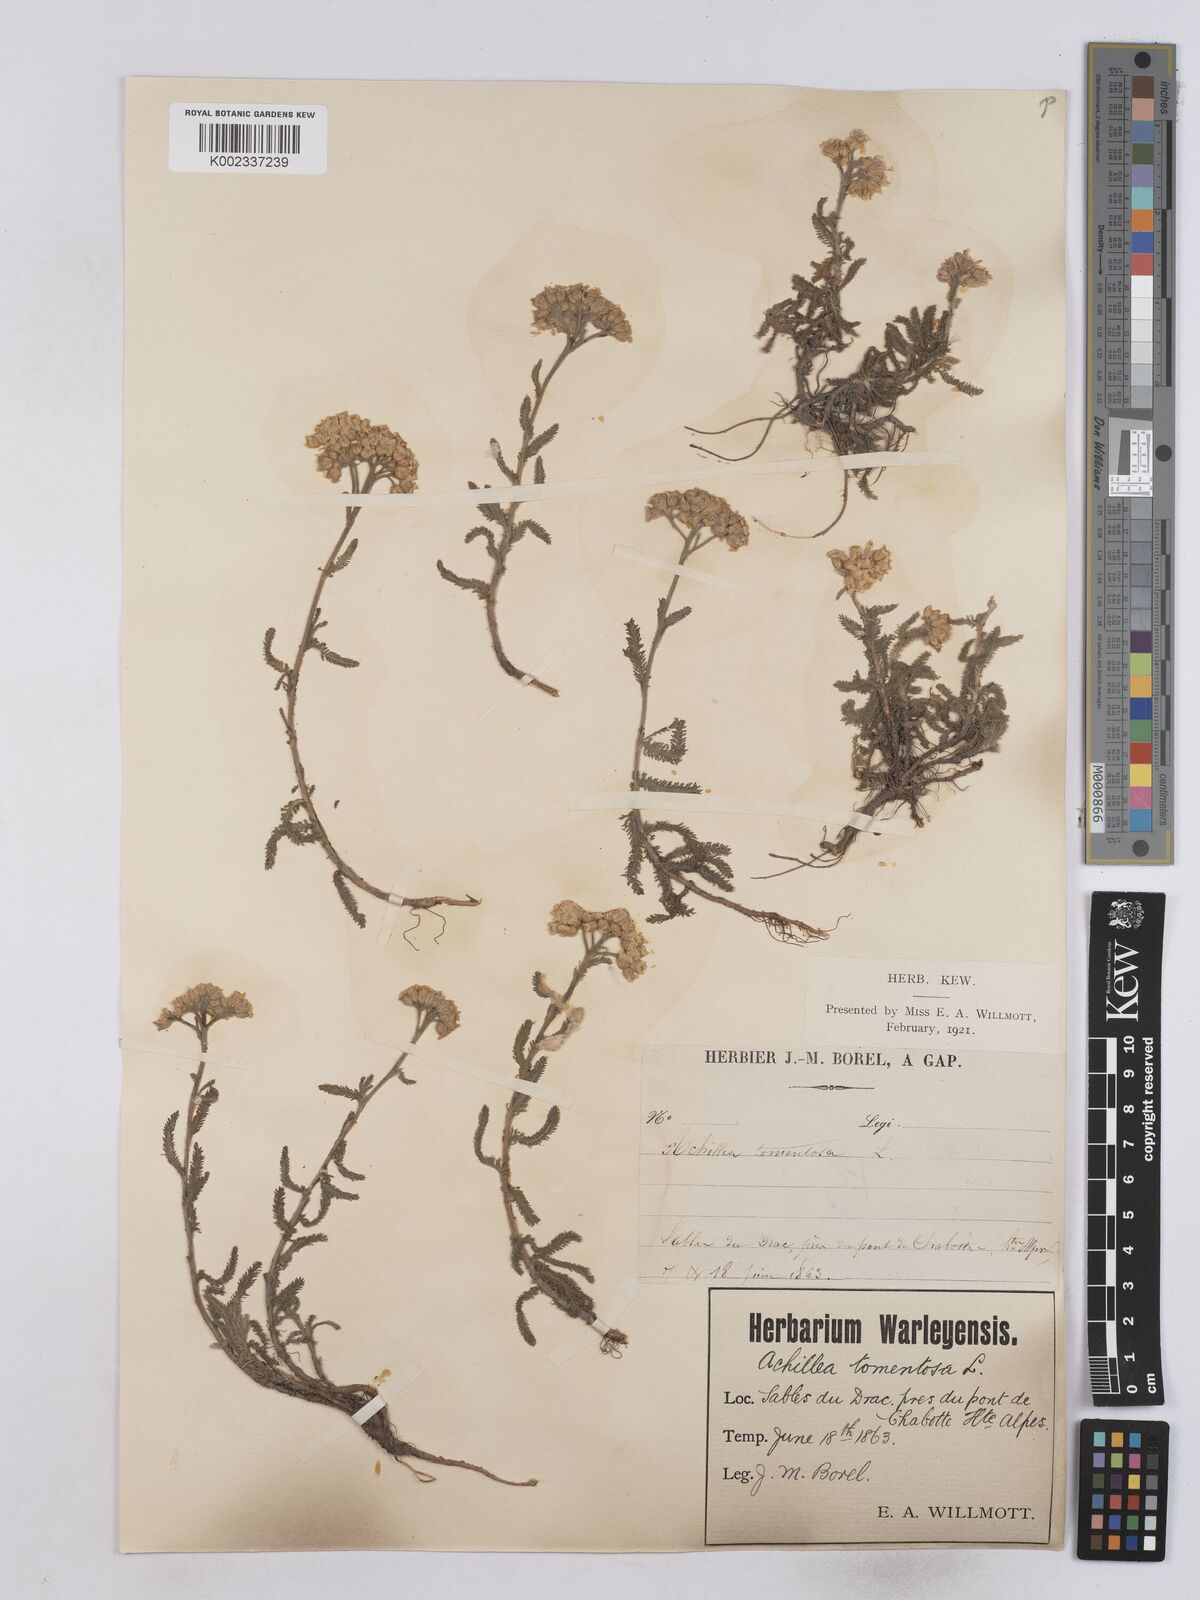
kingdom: Plantae
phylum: Tracheophyta
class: Magnoliopsida
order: Asterales
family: Asteraceae
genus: Achillea
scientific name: Achillea tomentosa
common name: Yellow milfoil
